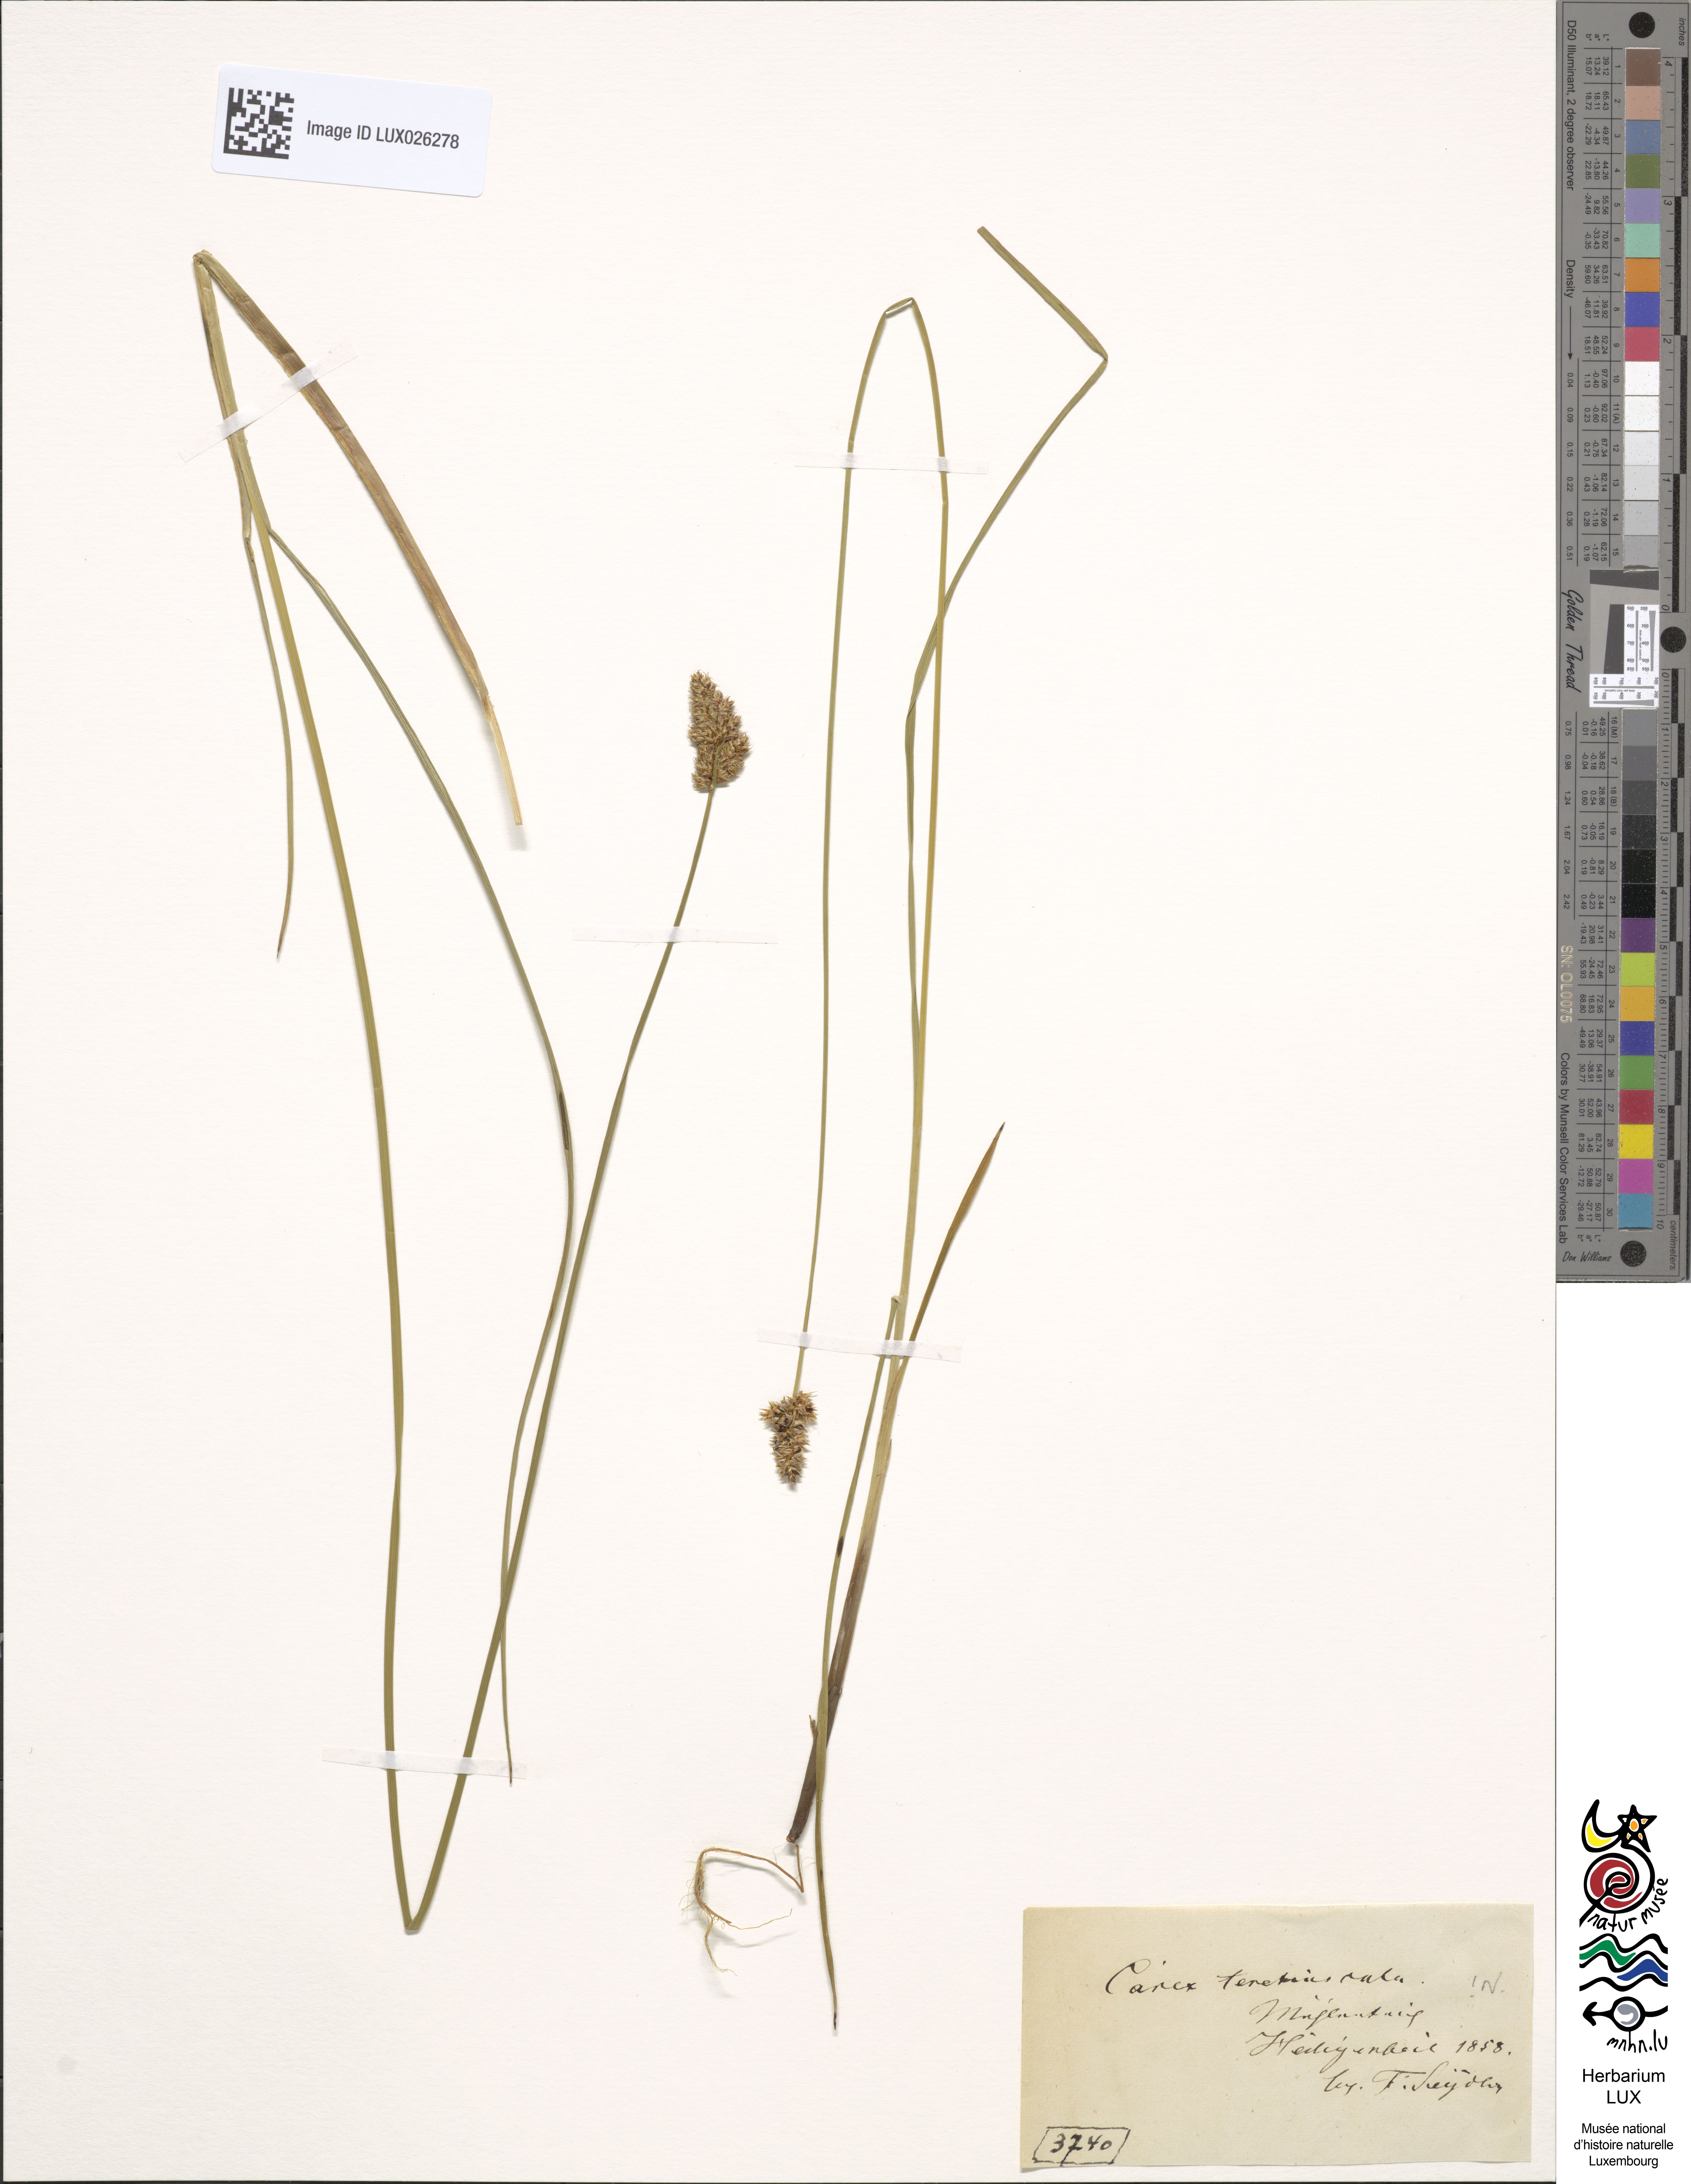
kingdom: Plantae
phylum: Tracheophyta
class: Liliopsida
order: Poales
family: Cyperaceae
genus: Carex
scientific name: Carex diandra
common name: Lesser tussock-sedge
